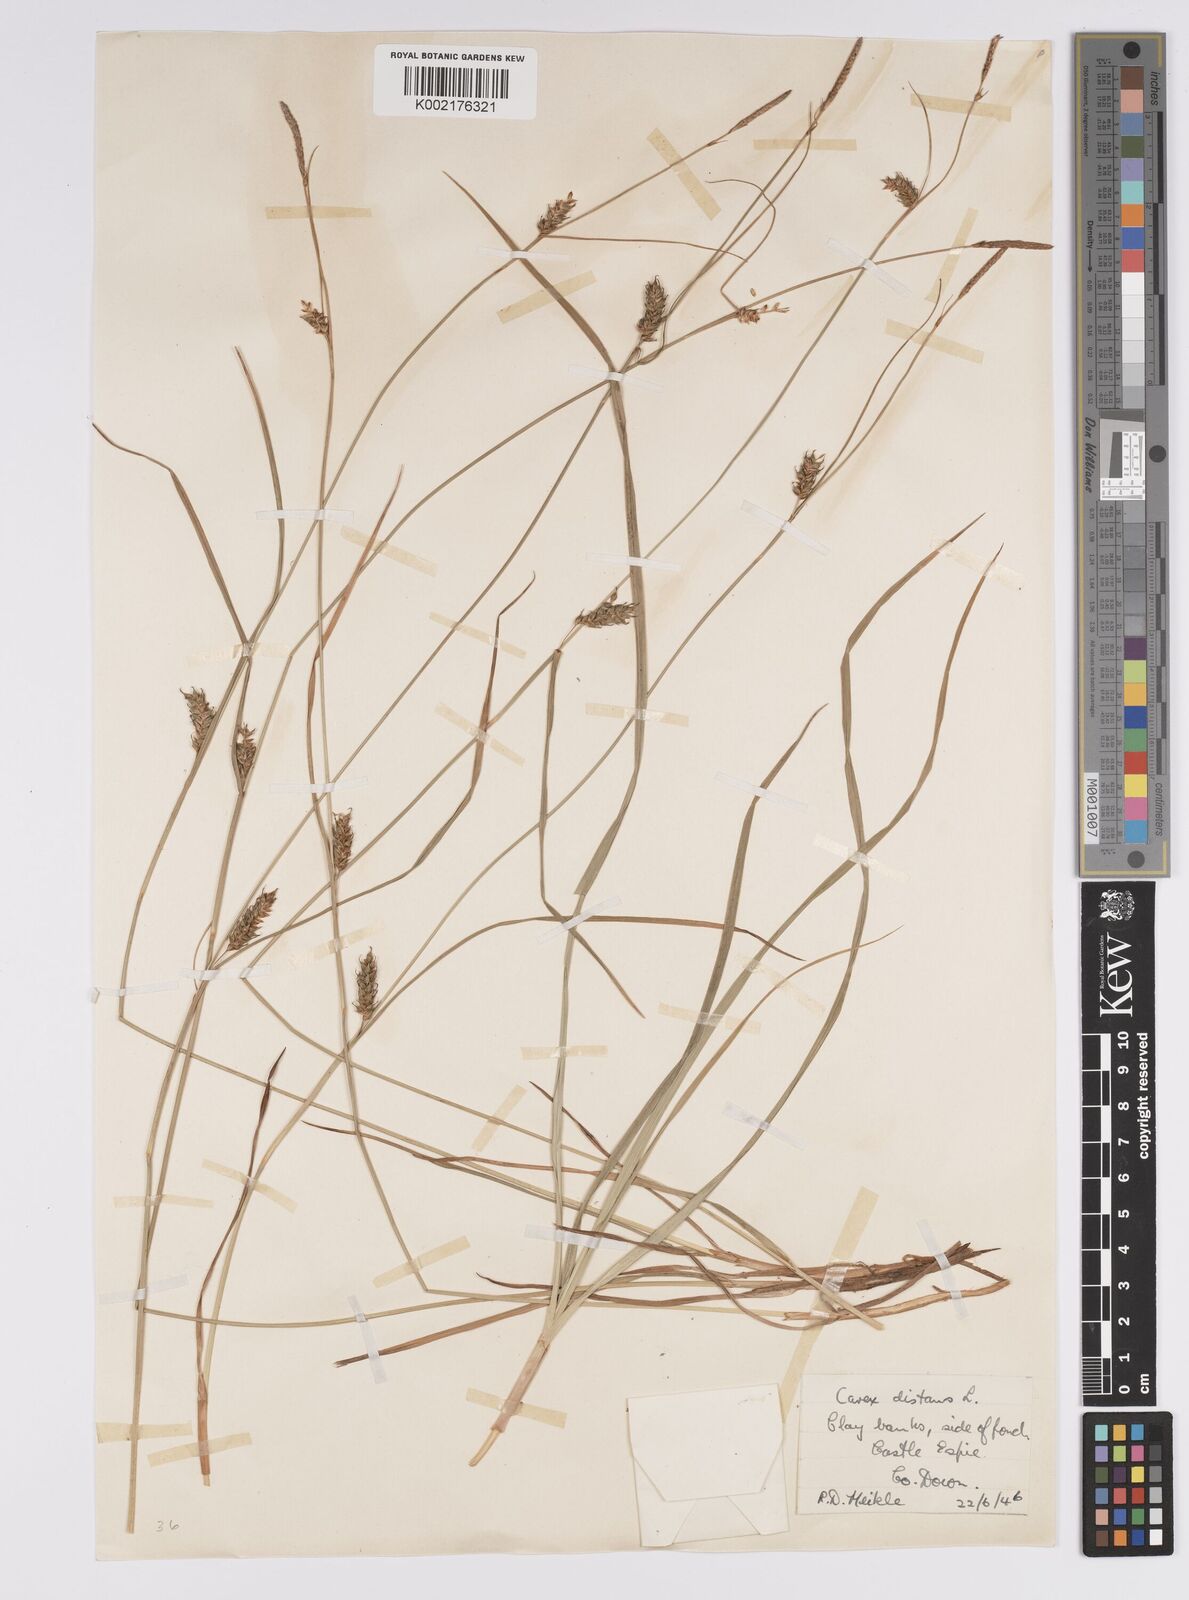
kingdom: Plantae
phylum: Tracheophyta
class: Liliopsida
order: Poales
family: Cyperaceae
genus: Carex
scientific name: Carex distans
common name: Distant sedge
